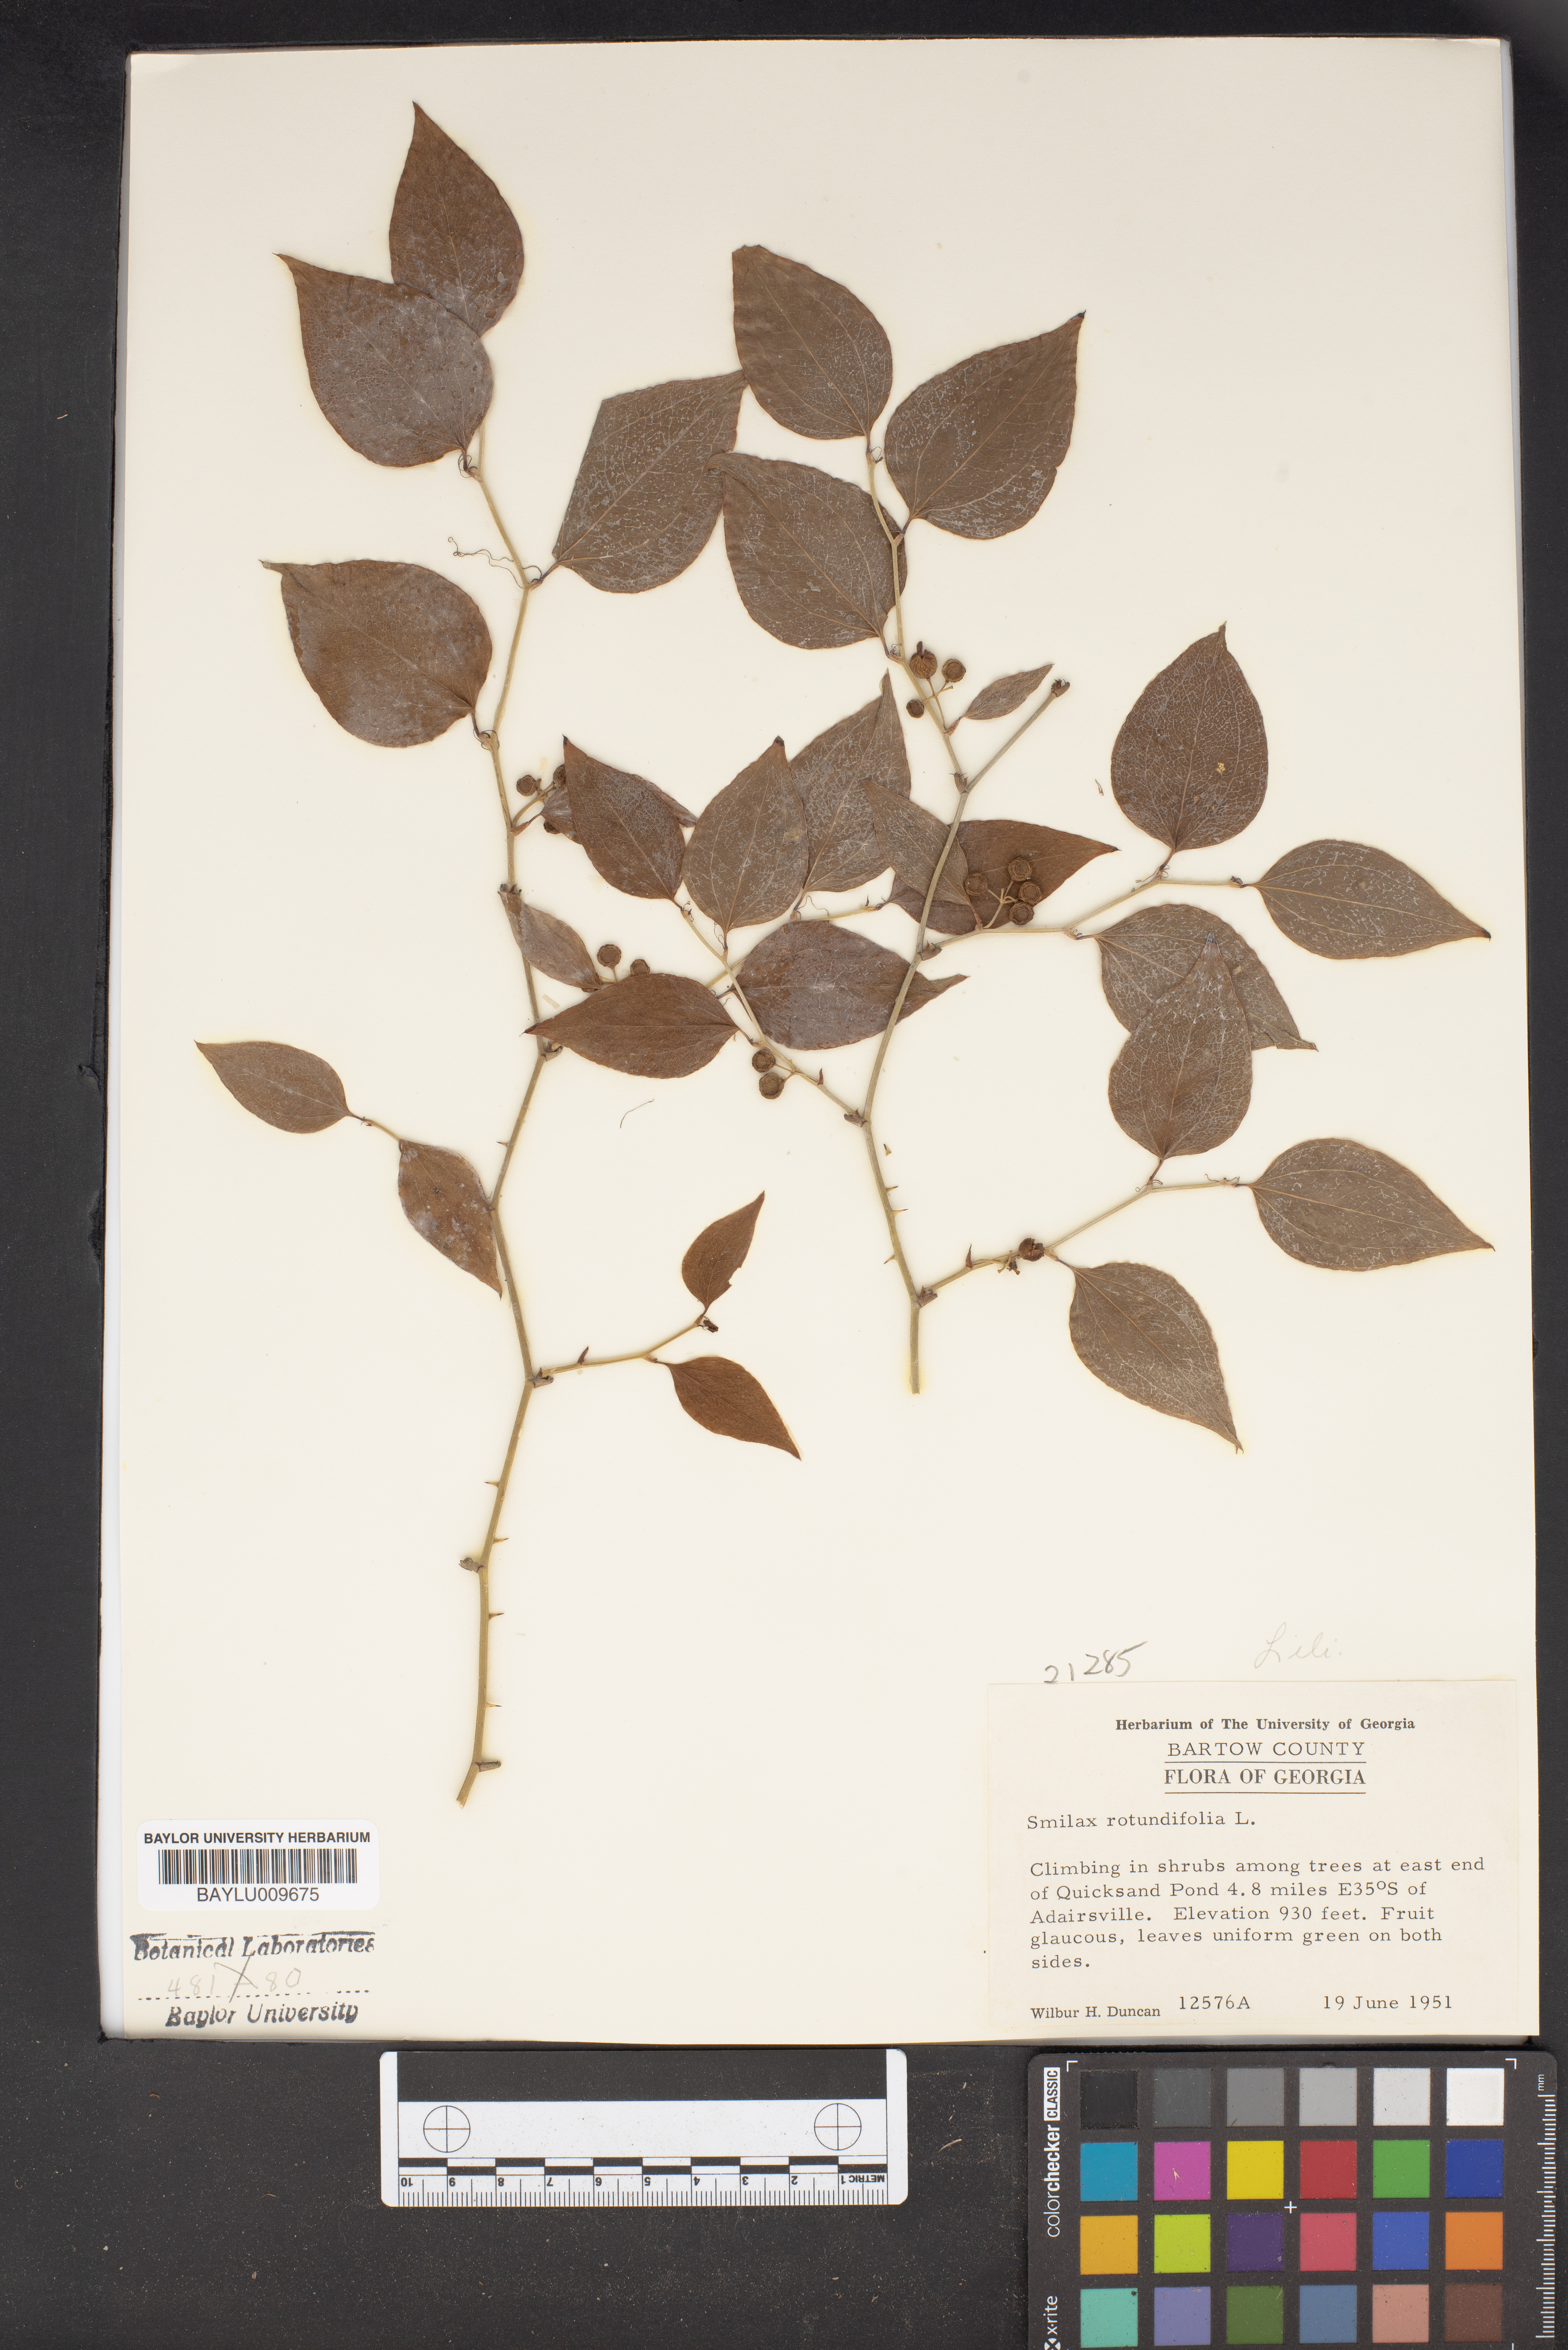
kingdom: Plantae
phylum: Tracheophyta
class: Liliopsida
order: Liliales
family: Smilacaceae
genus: Smilax
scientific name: Smilax rotundifolia
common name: Bullbriar
